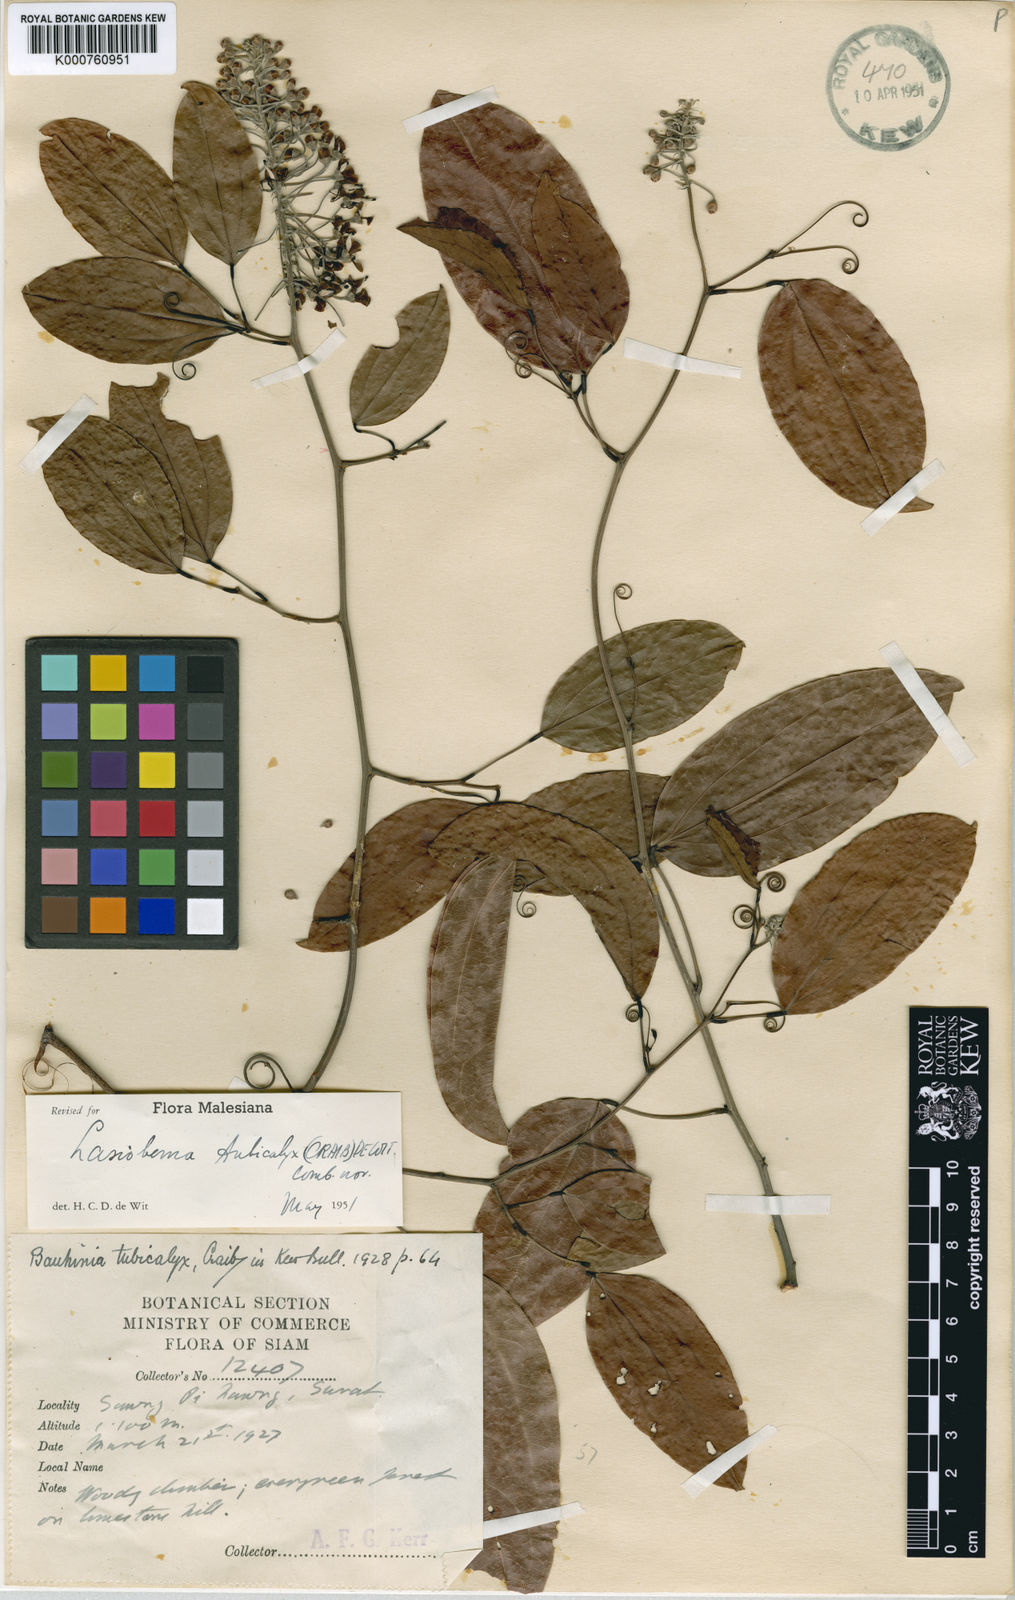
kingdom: Plantae
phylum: Tracheophyta
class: Magnoliopsida
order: Fabales
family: Fabaceae
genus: Phanera
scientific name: Phanera tubicalyx
